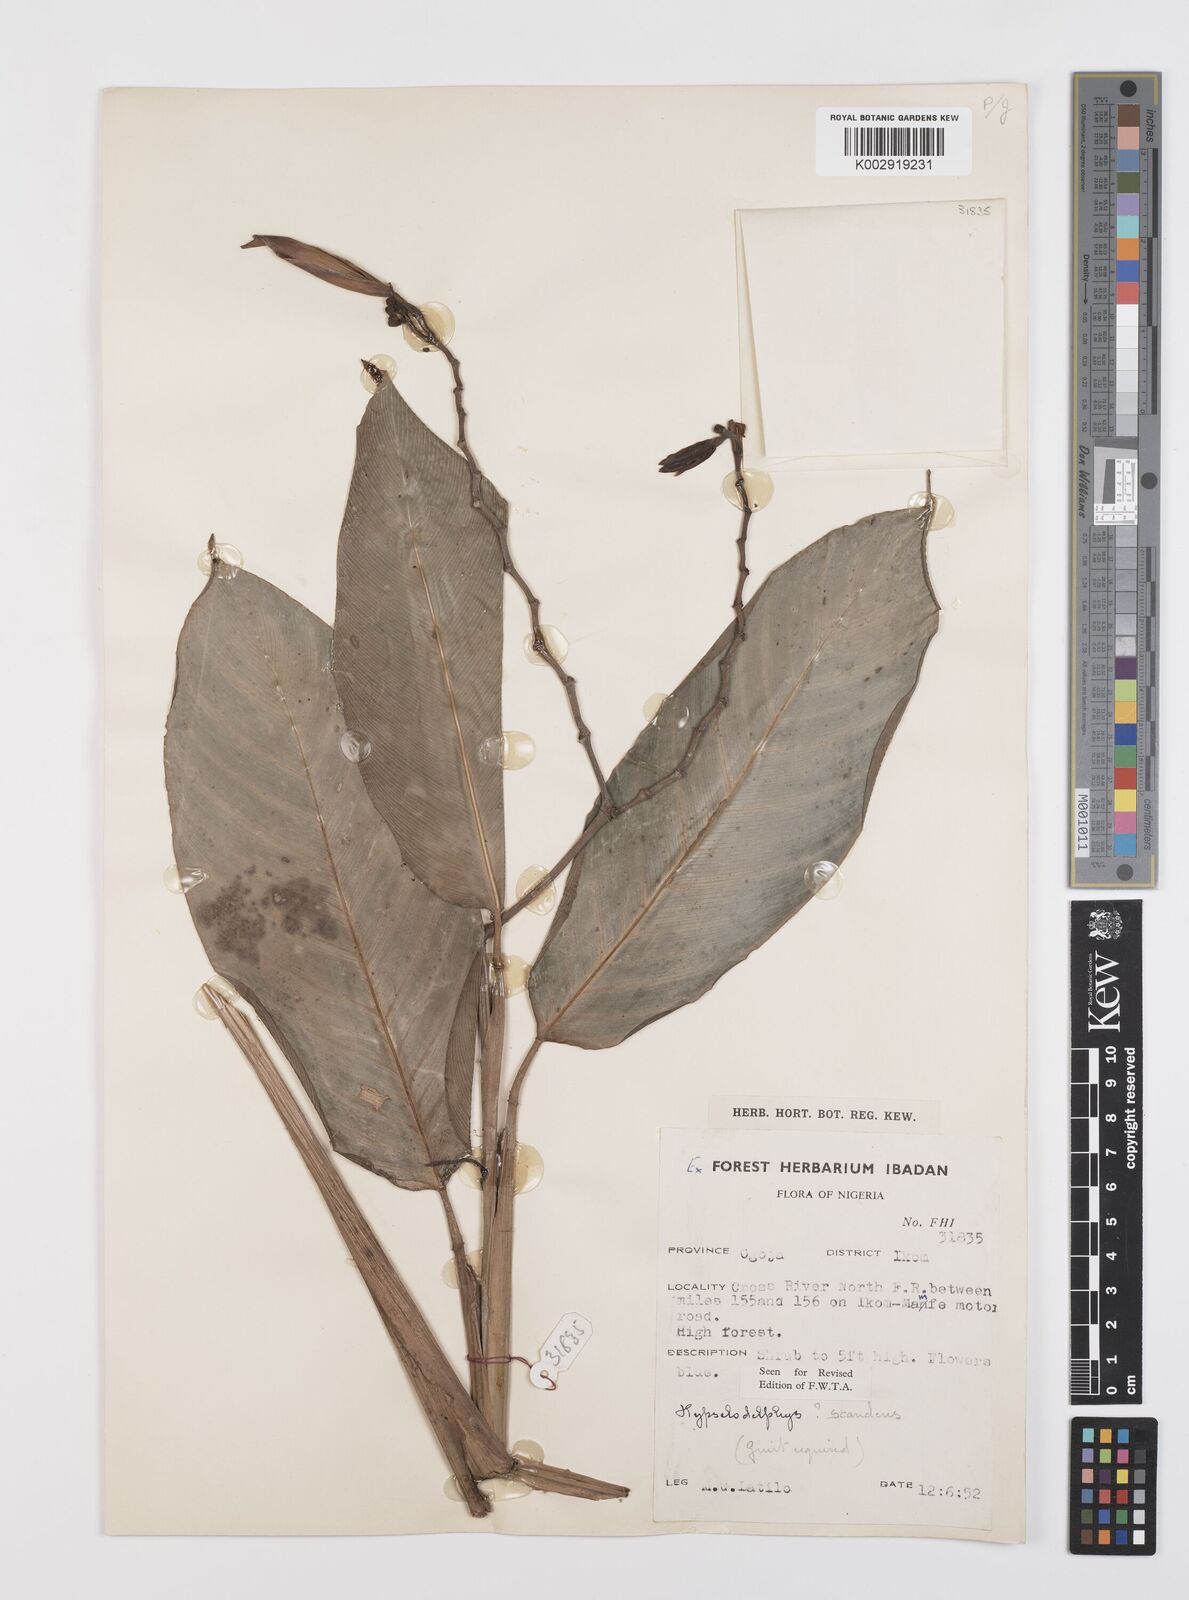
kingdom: Plantae
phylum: Tracheophyta
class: Liliopsida
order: Zingiberales
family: Marantaceae
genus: Hypselodelphys
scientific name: Hypselodelphys scandens
